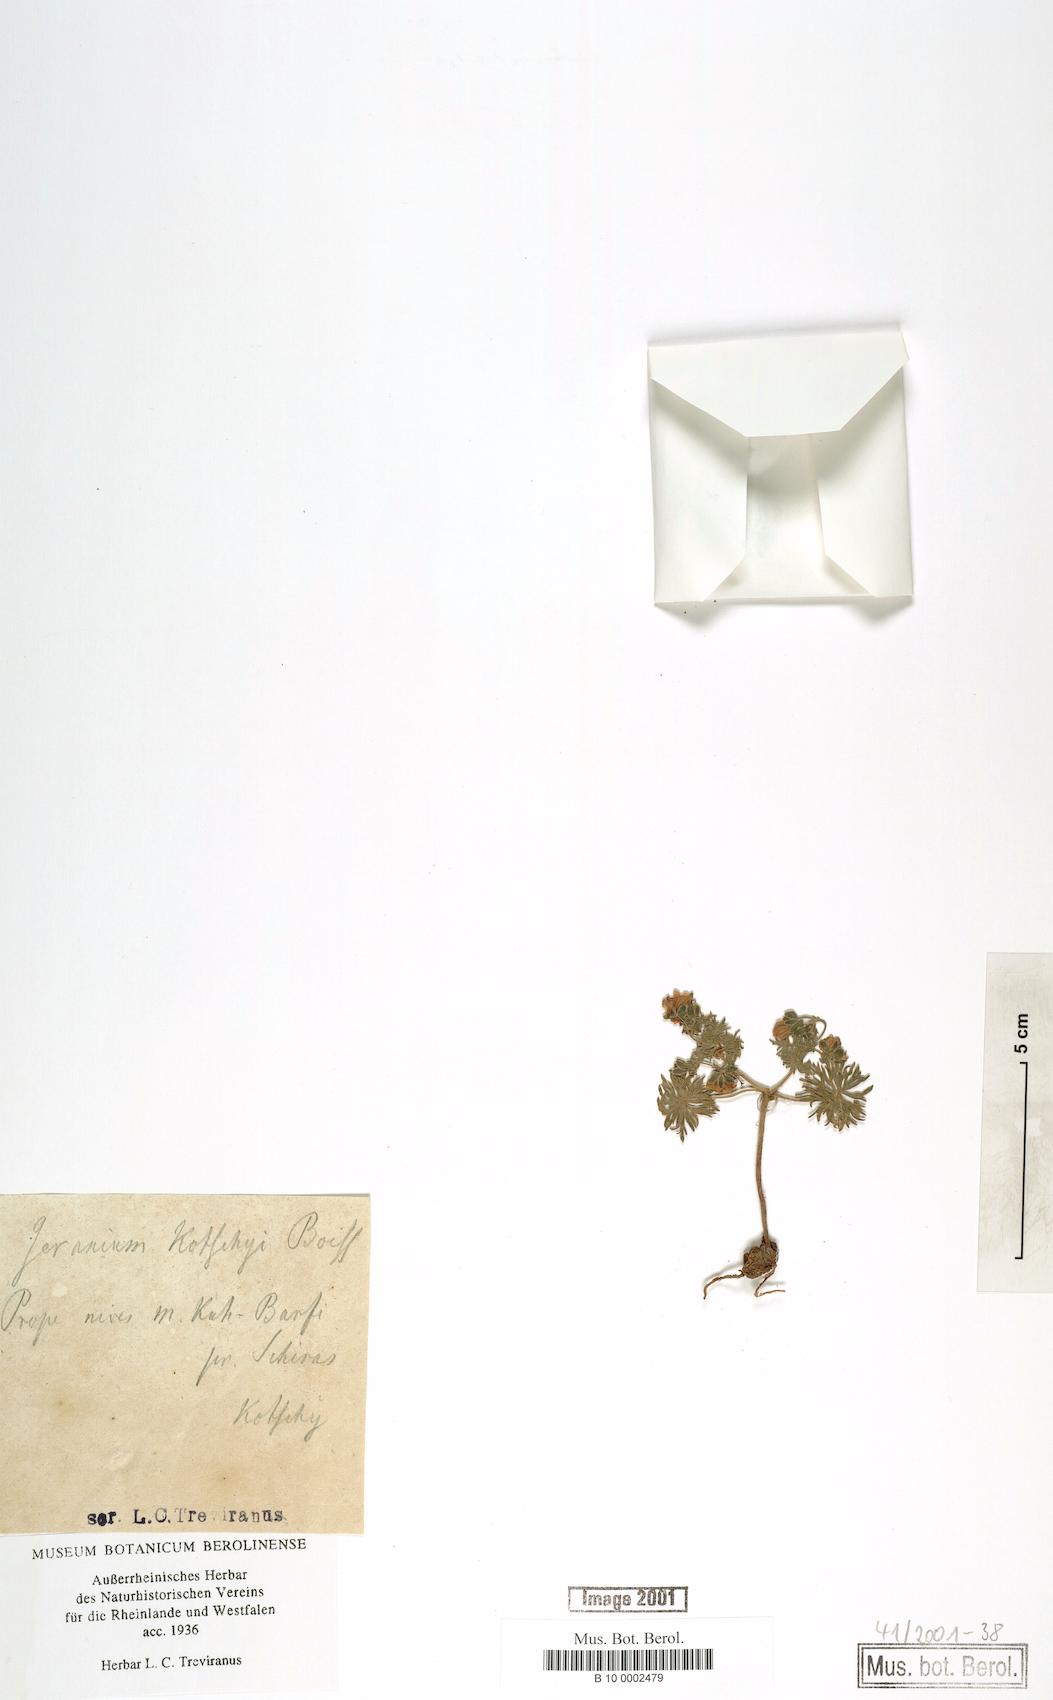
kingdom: Plantae
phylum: Tracheophyta
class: Magnoliopsida
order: Geraniales
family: Geraniaceae
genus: Geranium
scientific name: Geranium kotschyi
